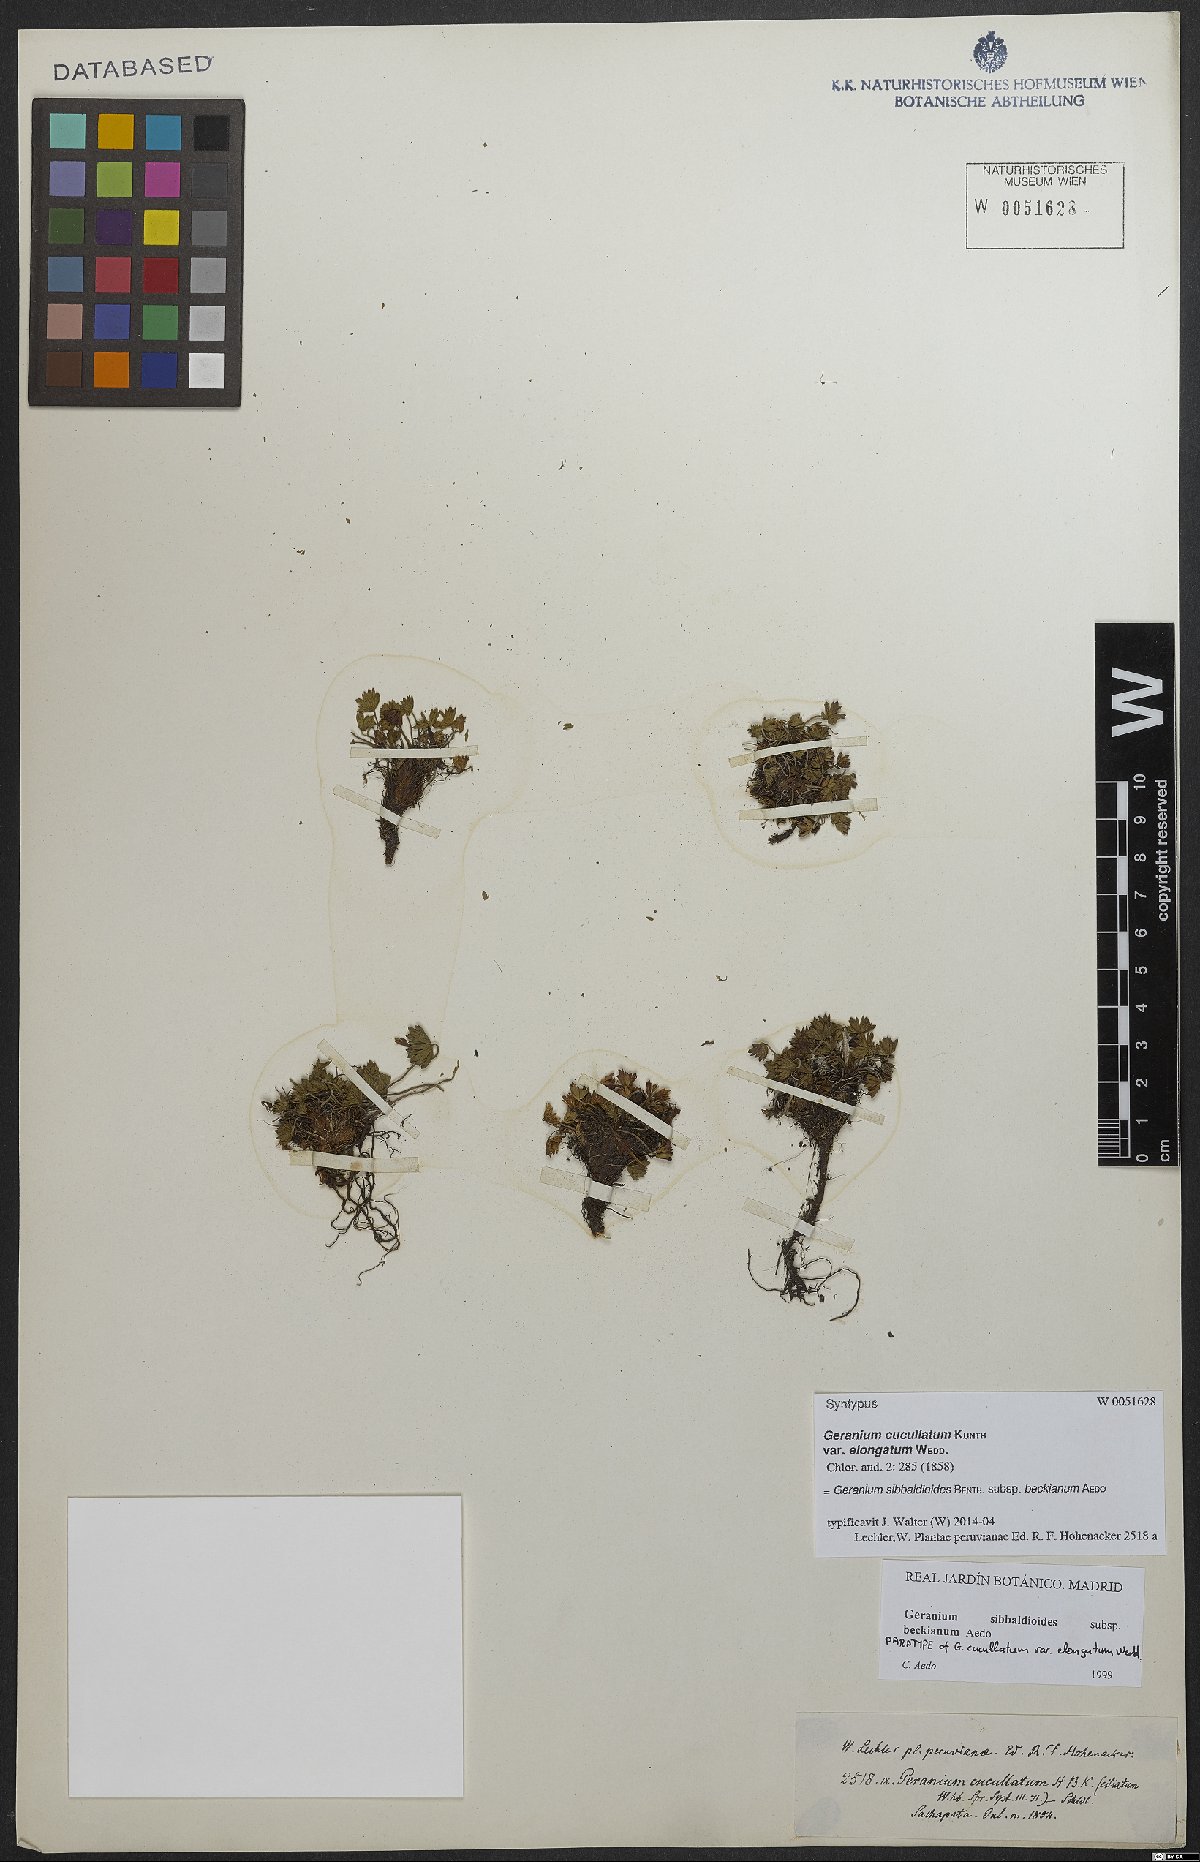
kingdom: Plantae
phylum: Tracheophyta
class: Magnoliopsida
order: Geraniales
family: Geraniaceae
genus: Geranium
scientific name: Geranium sibbaldioides
